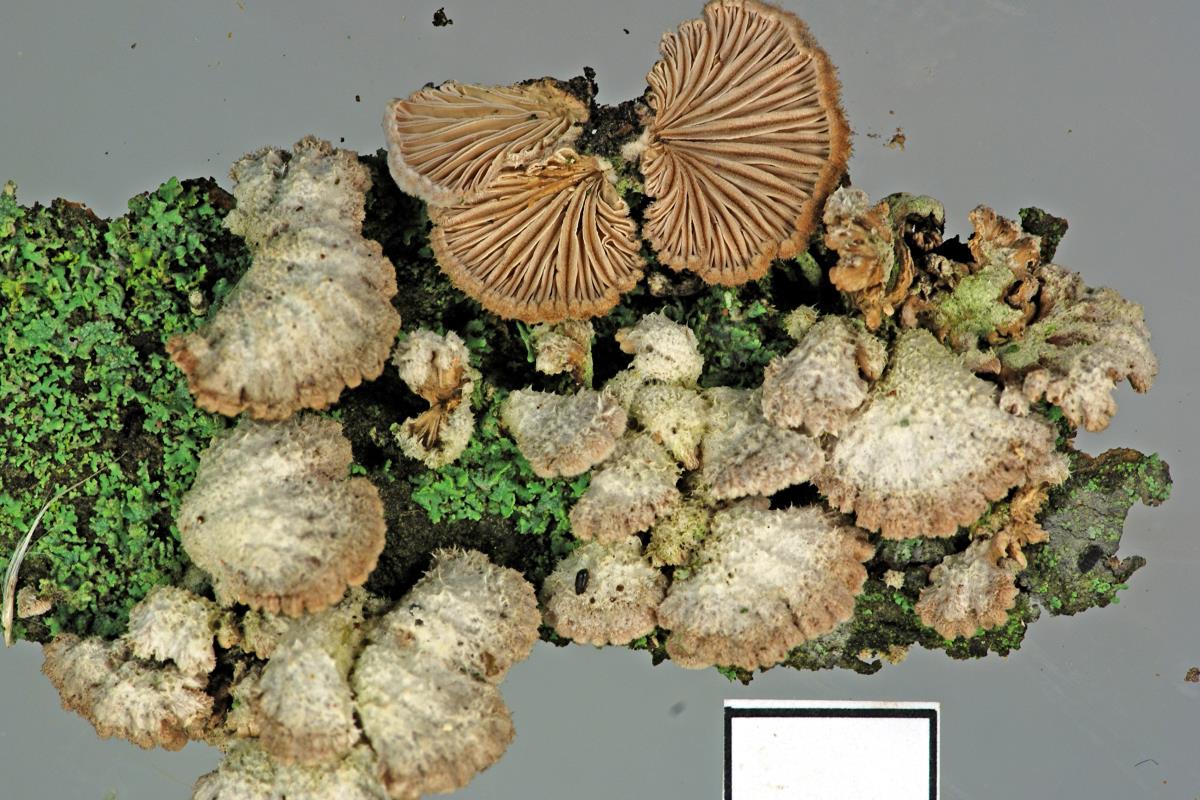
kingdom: Fungi
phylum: Basidiomycota
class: Agaricomycetes
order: Agaricales
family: Schizophyllaceae
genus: Schizophyllum
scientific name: Schizophyllum commune
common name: Common porecrust
